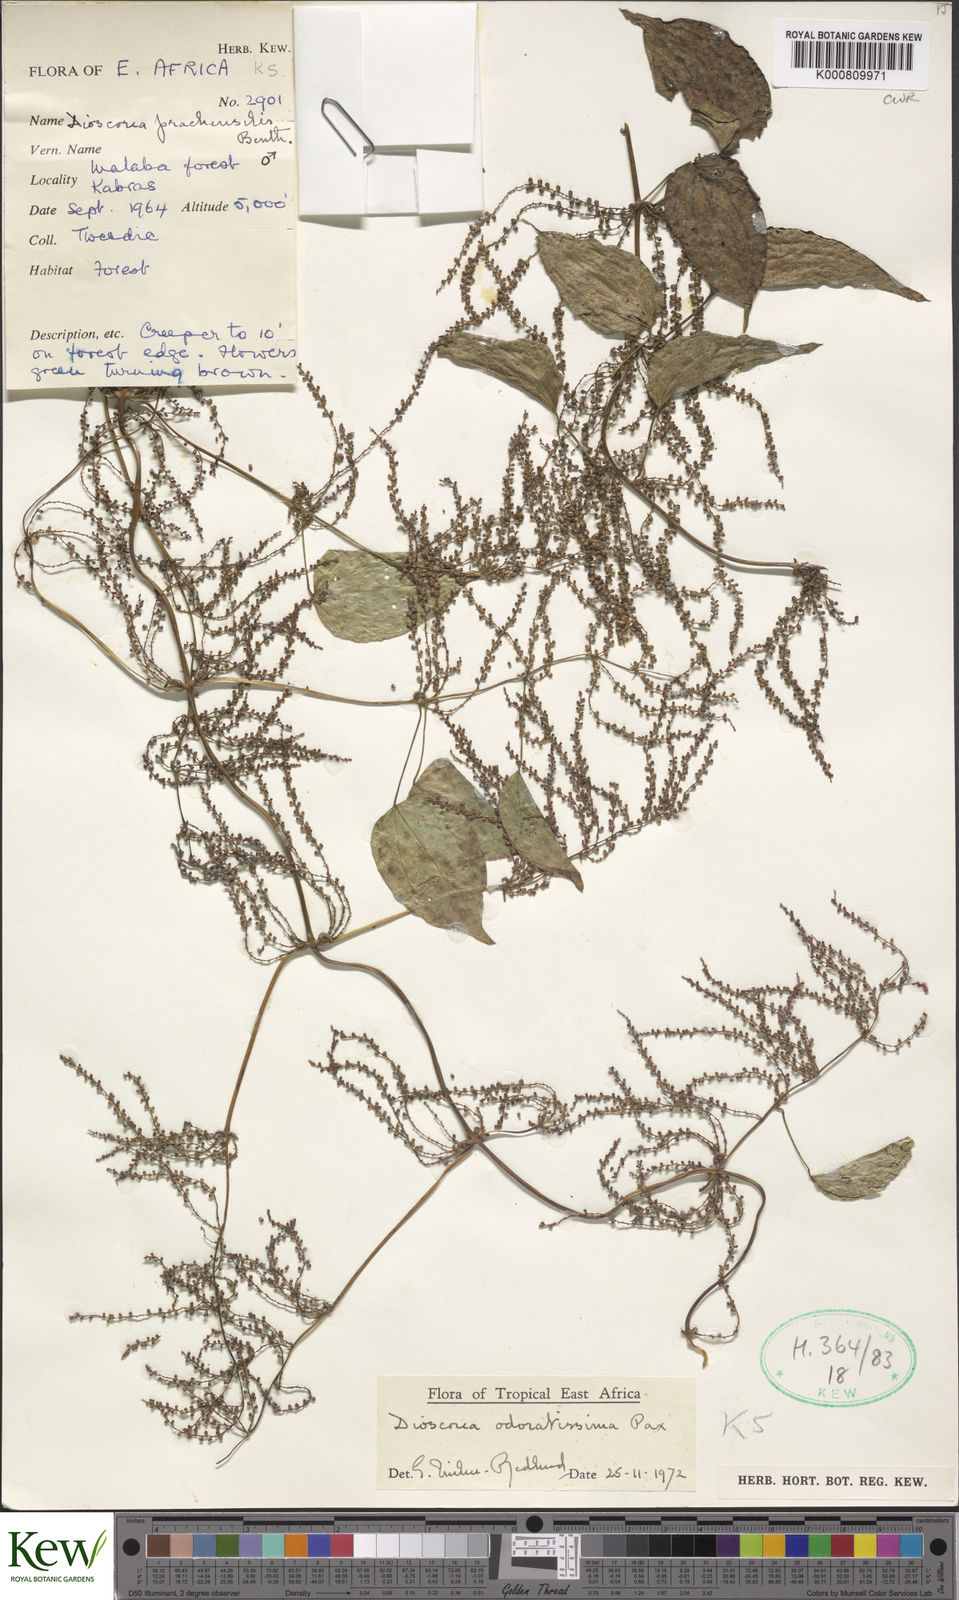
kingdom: Plantae
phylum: Tracheophyta
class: Liliopsida
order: Dioscoreales
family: Dioscoreaceae
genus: Dioscorea
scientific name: Dioscorea praehensilis
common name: Bush yam
